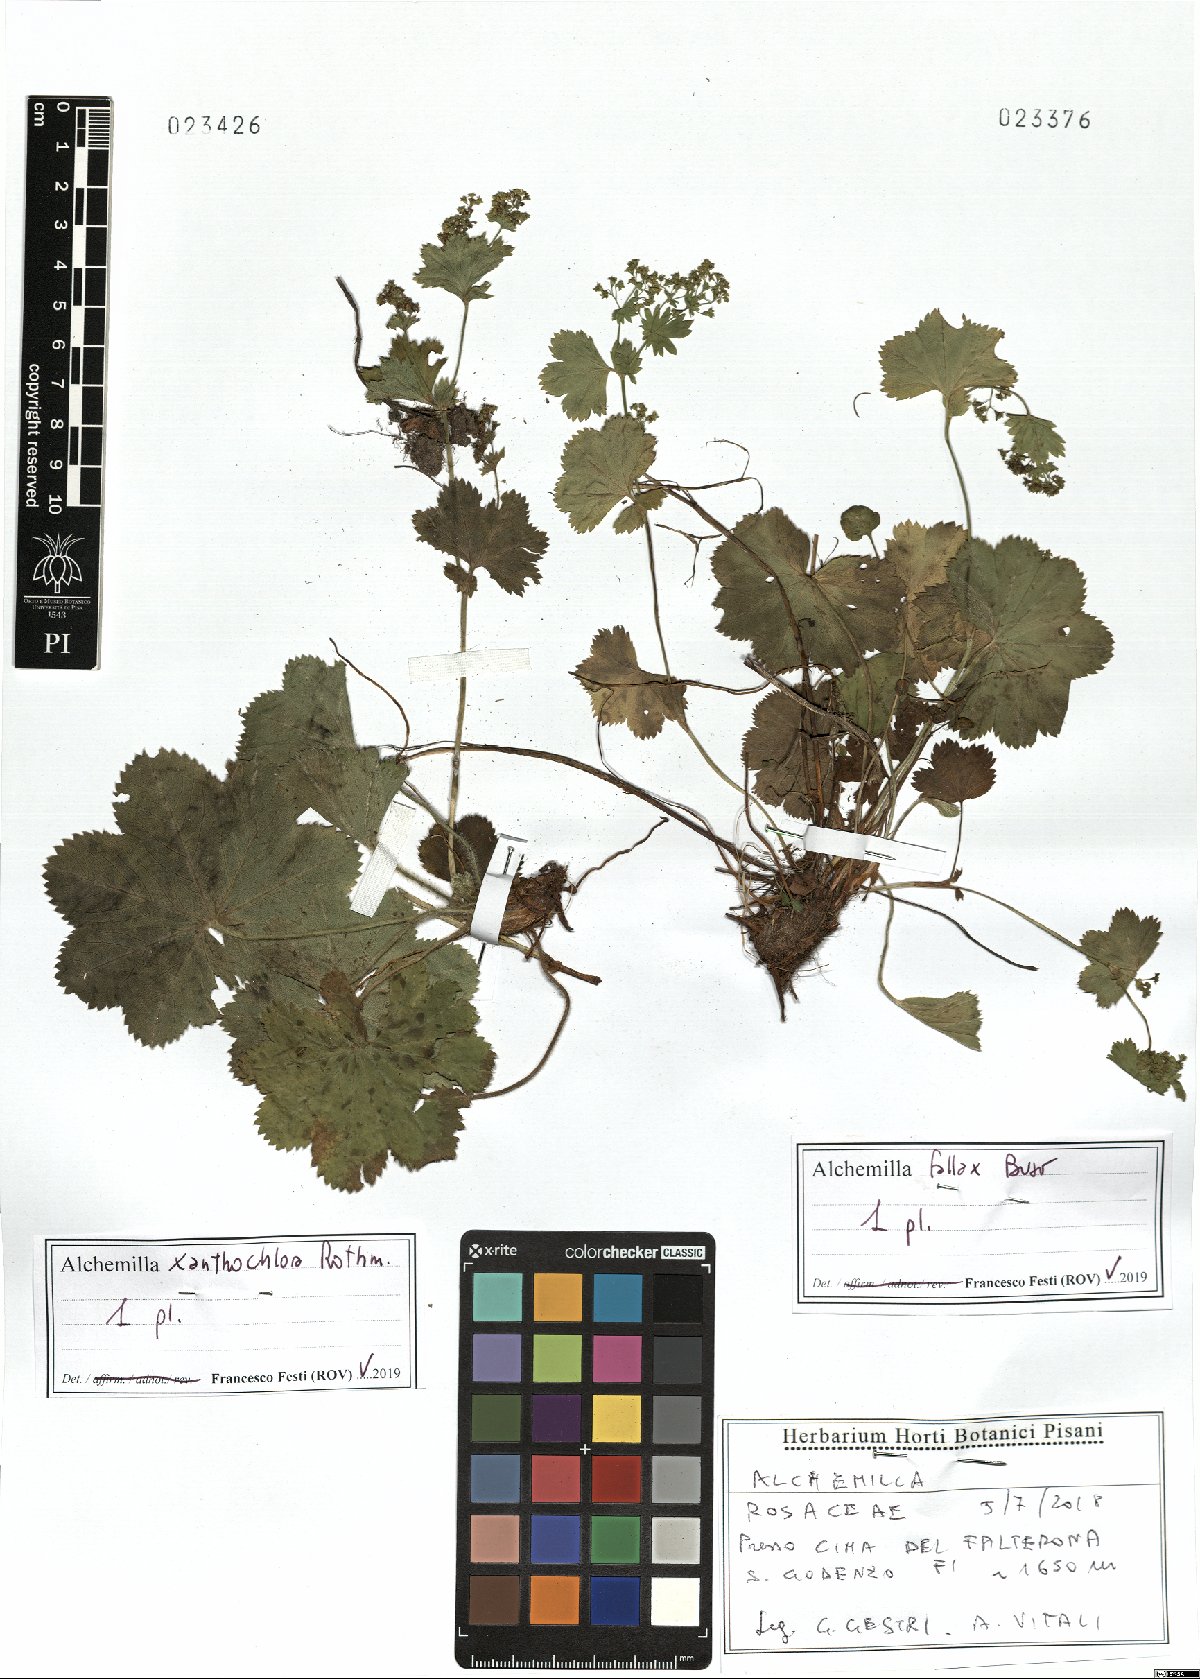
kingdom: Plantae
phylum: Tracheophyta
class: Magnoliopsida
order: Rosales
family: Rosaceae
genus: Alchemilla
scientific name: Alchemilla xanthochlora
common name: Intermediate lady's-mantle
